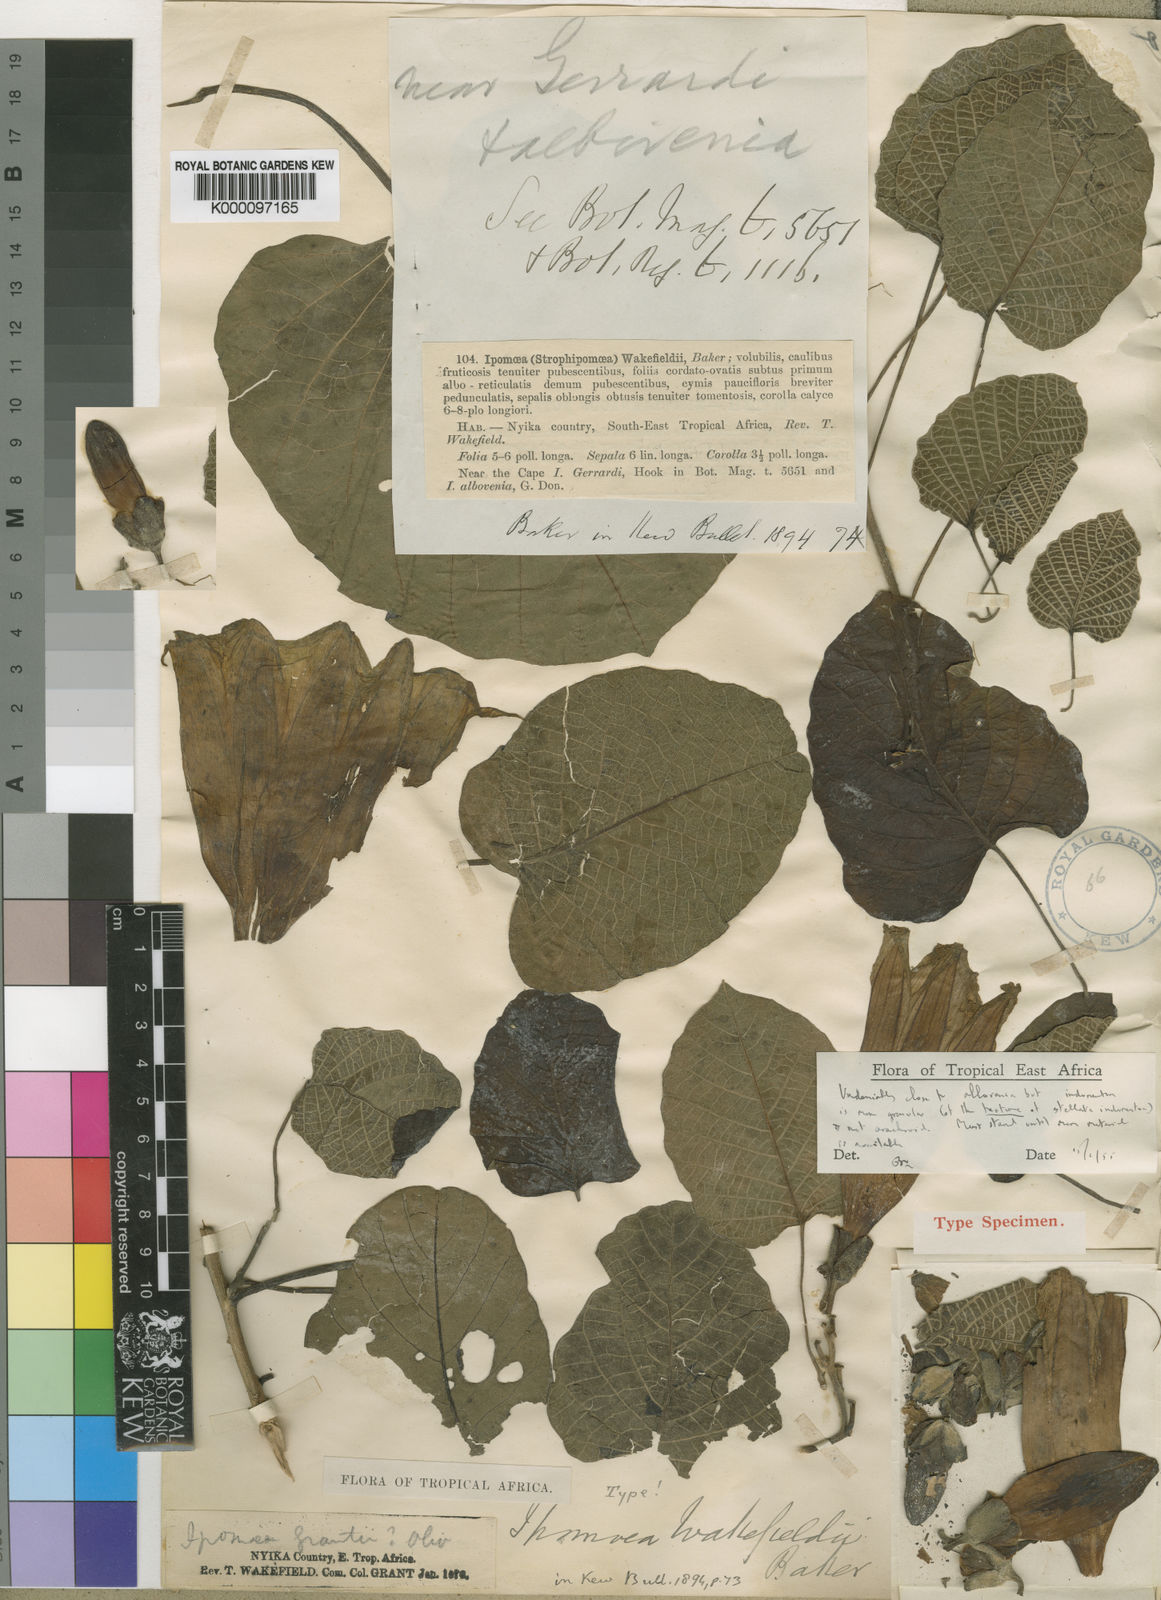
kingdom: Plantae
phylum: Tracheophyta
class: Magnoliopsida
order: Solanales
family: Convolvulaceae
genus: Ipomoea
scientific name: Ipomoea albivenia
